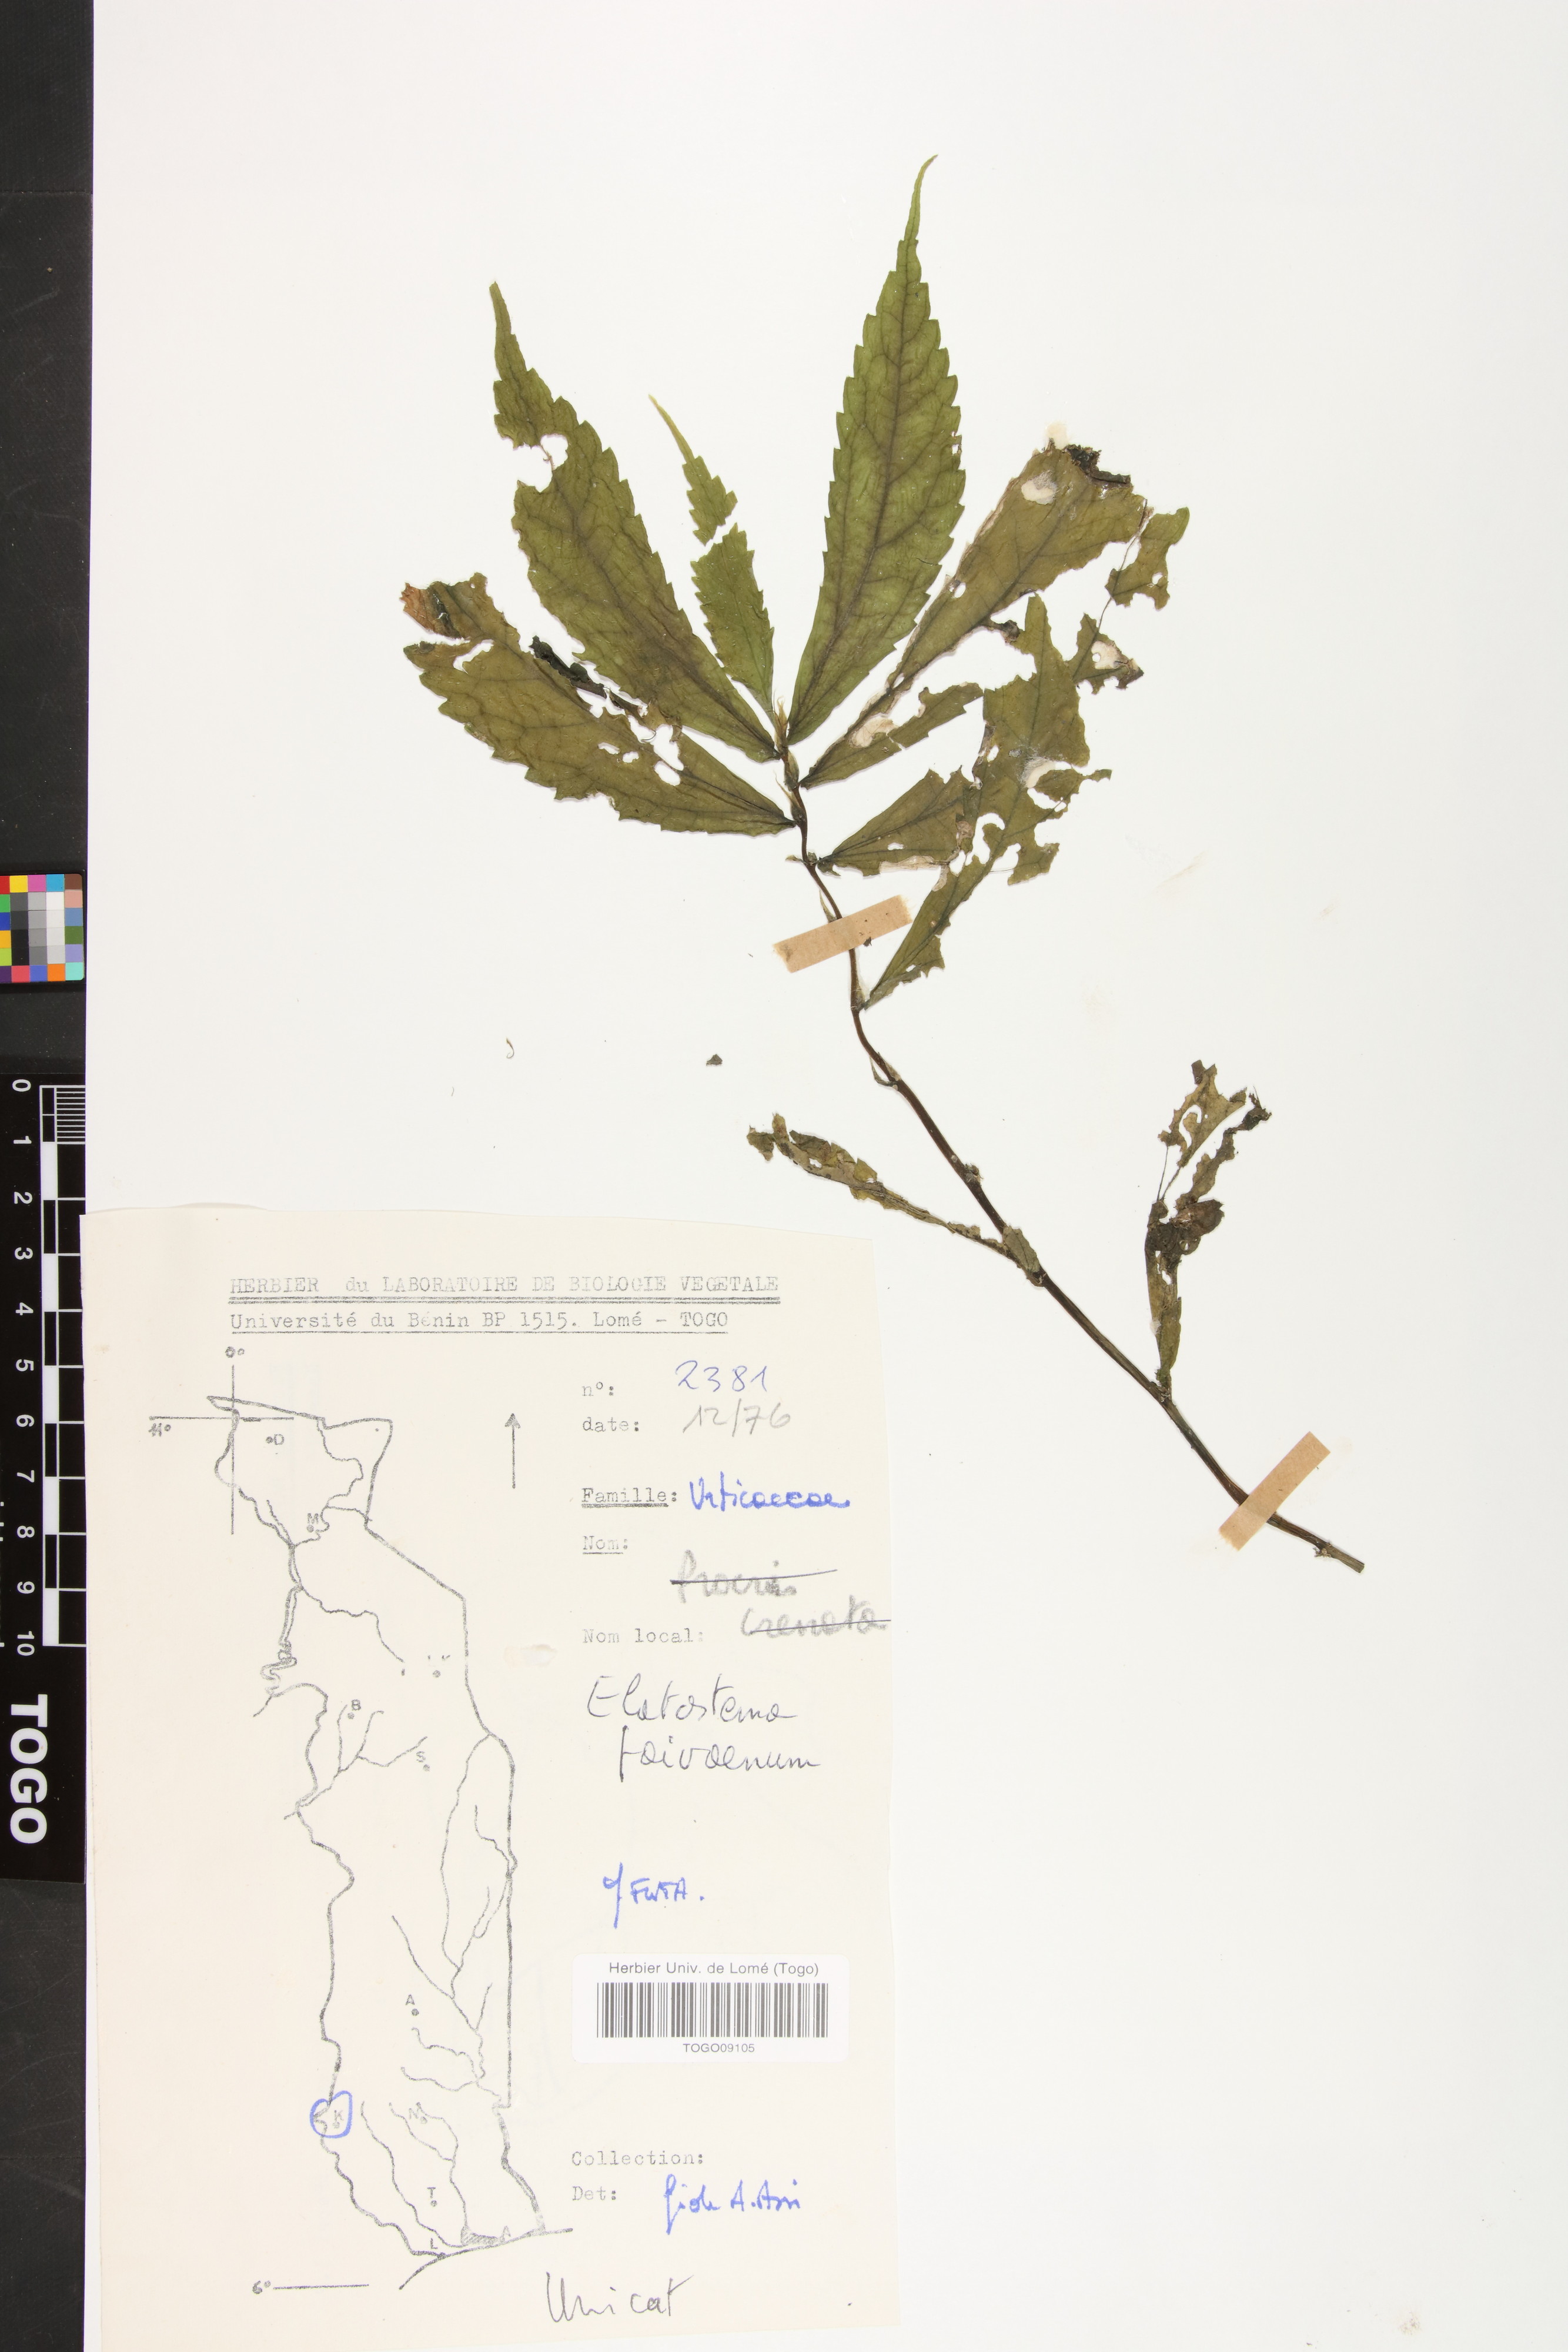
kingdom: Plantae
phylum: Tracheophyta
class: Magnoliopsida
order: Rosales
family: Urticaceae
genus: Elatostema
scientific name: Elatostema paivaeanum
